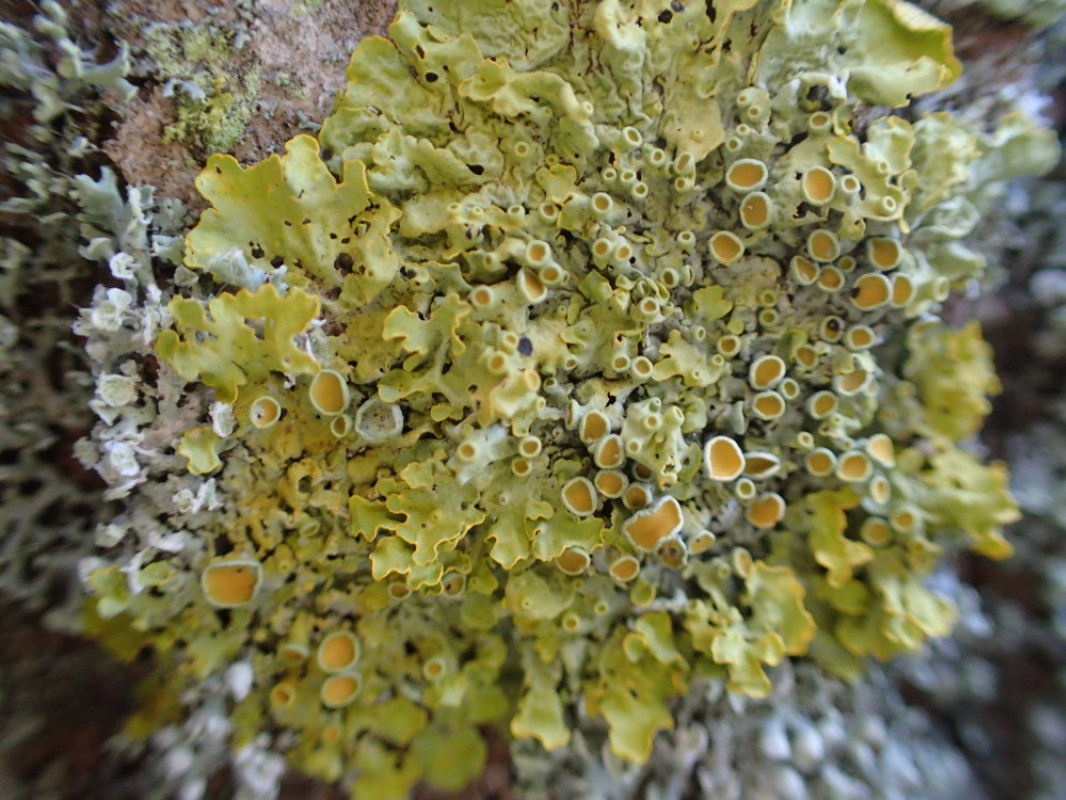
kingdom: Fungi
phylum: Ascomycota
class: Lecanoromycetes
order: Teloschistales
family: Teloschistaceae
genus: Xanthoria
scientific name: Xanthoria parietina
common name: almindelig væggelav
